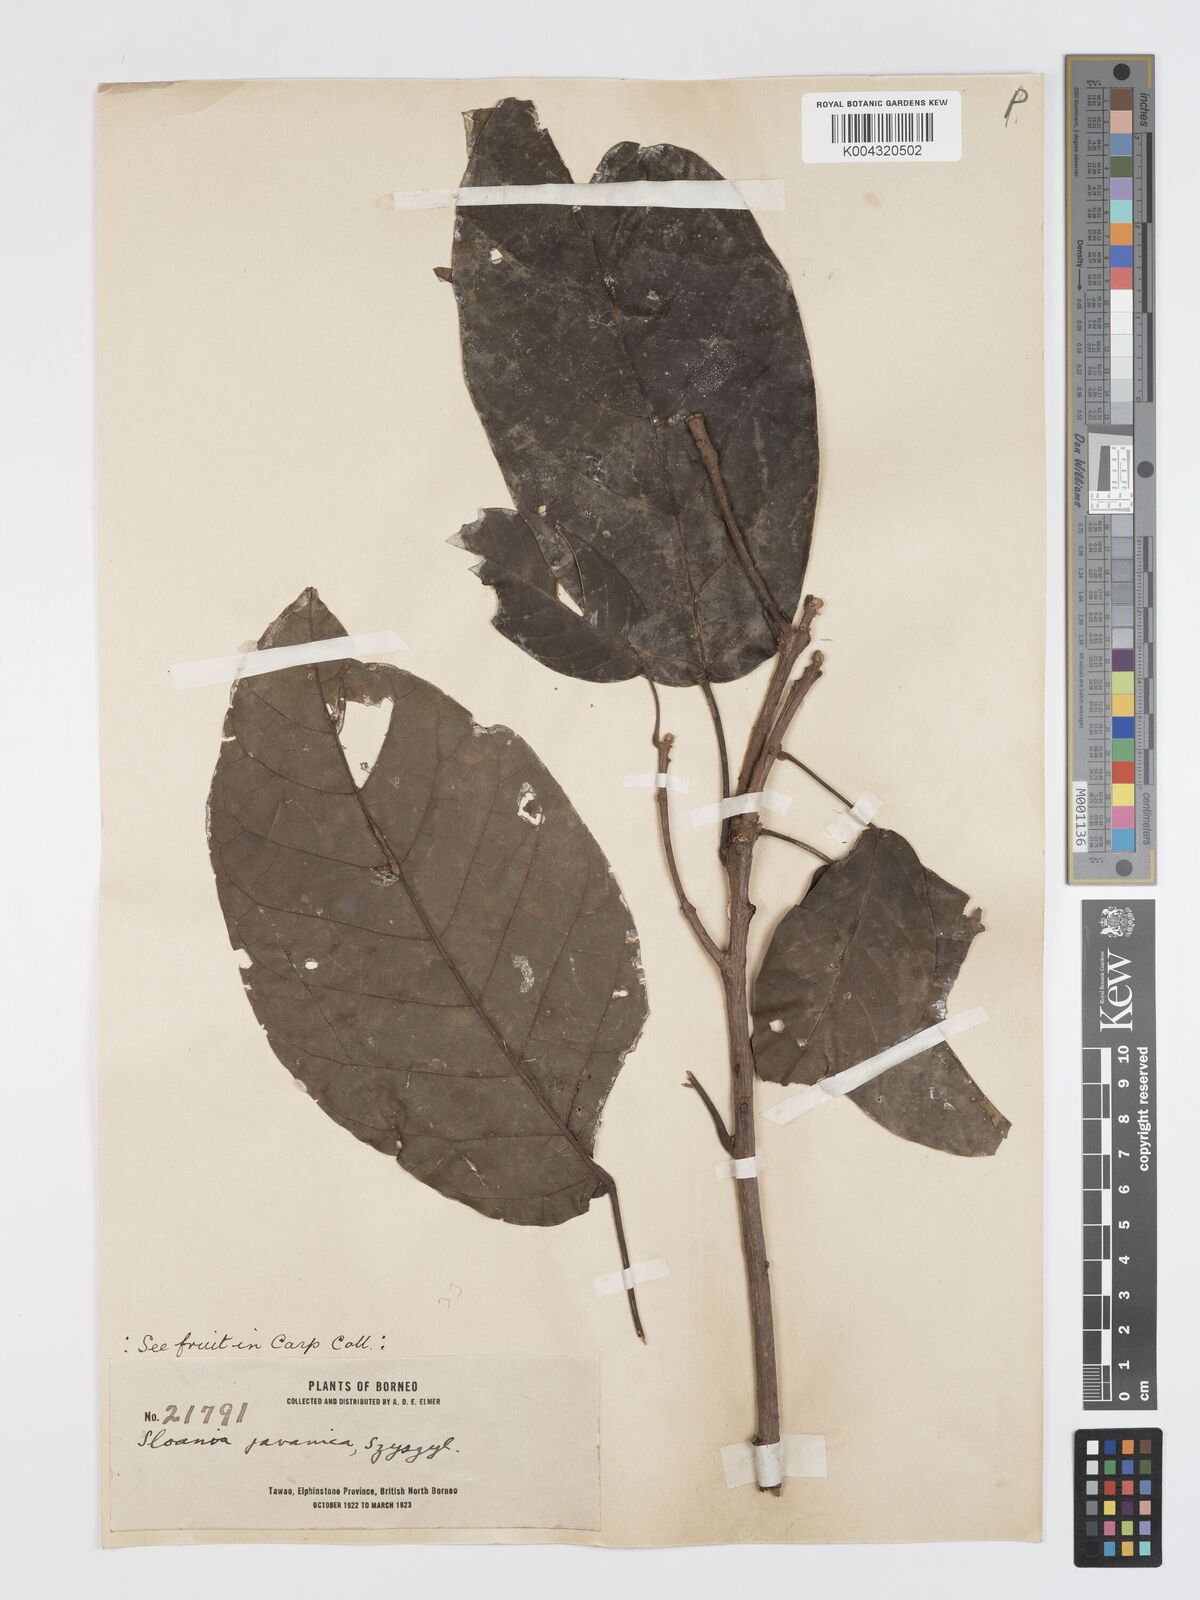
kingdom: Plantae
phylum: Tracheophyta
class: Magnoliopsida
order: Oxalidales
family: Elaeocarpaceae
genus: Sloanea
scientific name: Sloanea javanica
